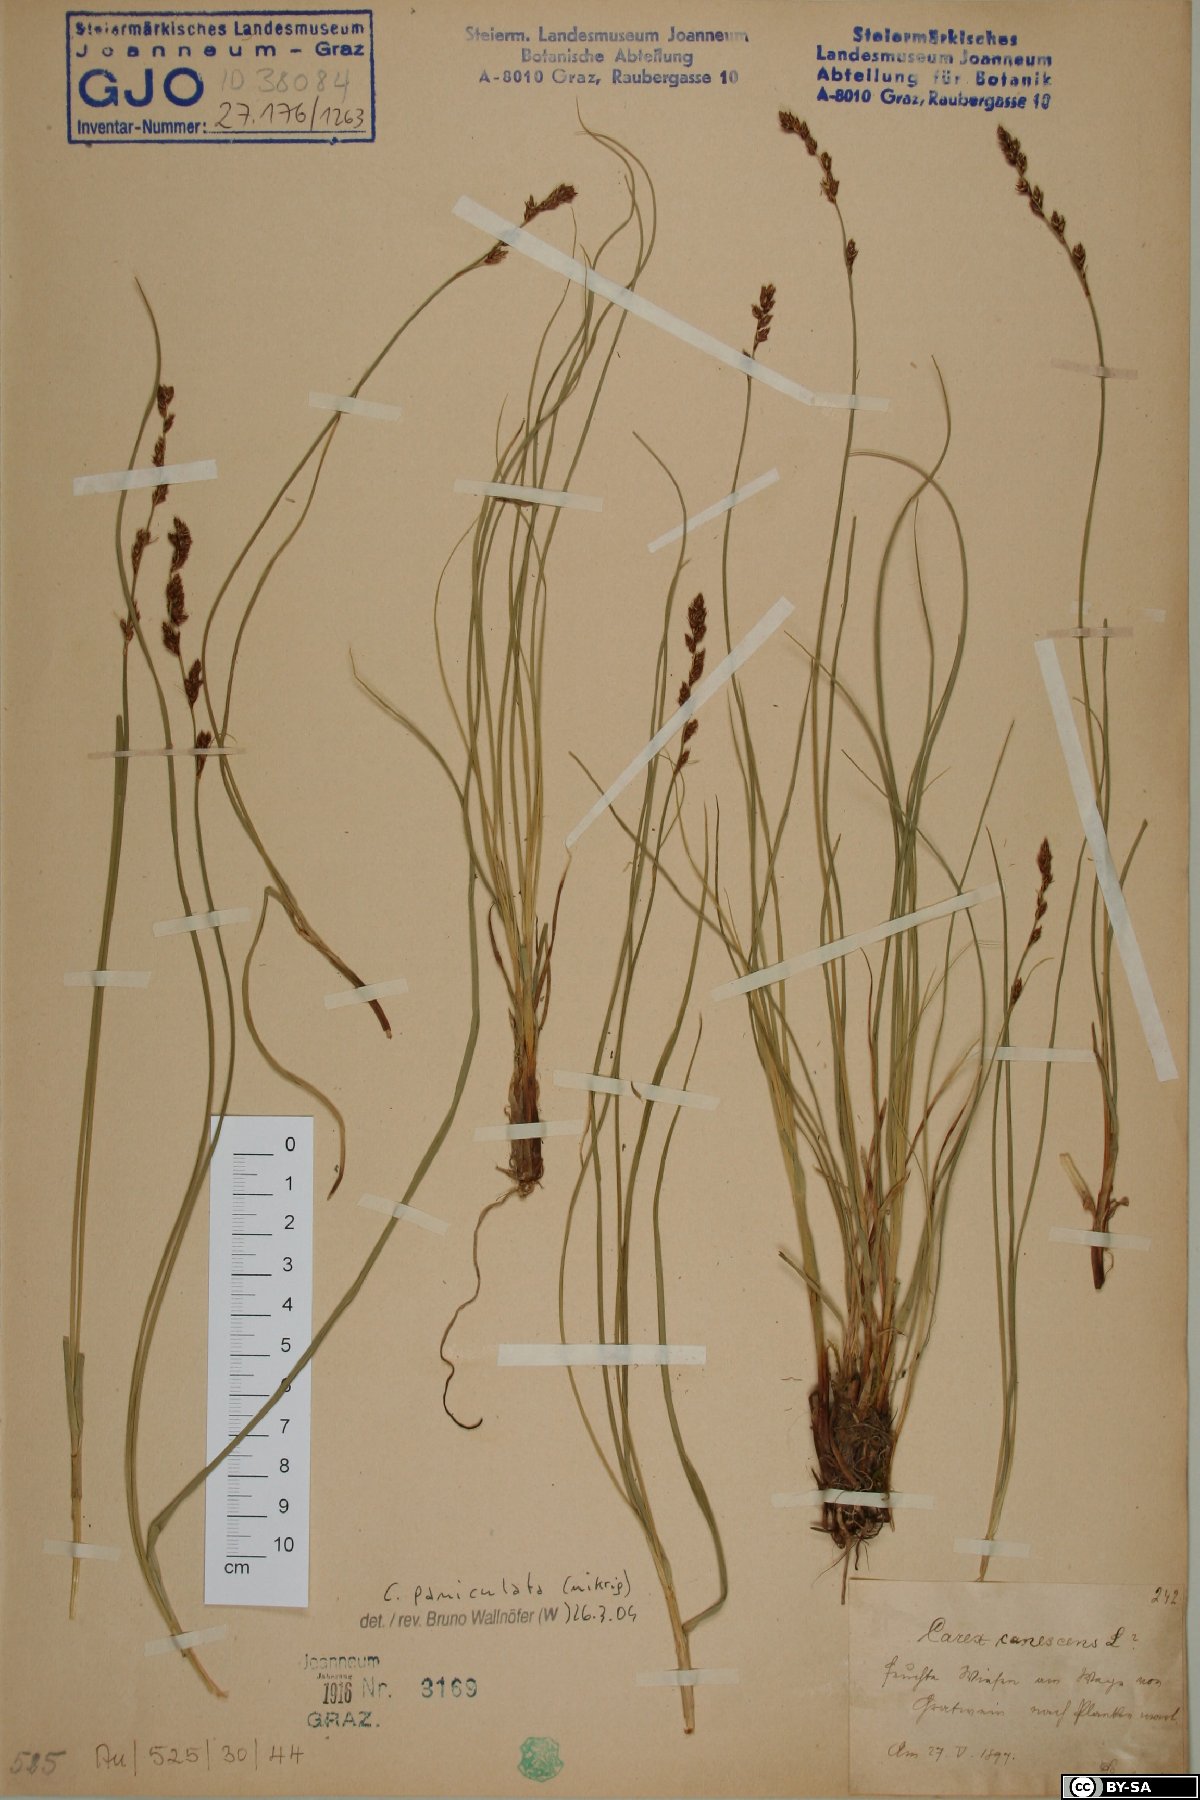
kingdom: Plantae
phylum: Tracheophyta
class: Liliopsida
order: Poales
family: Cyperaceae
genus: Carex
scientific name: Carex paniculata
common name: Greater tussock-sedge
